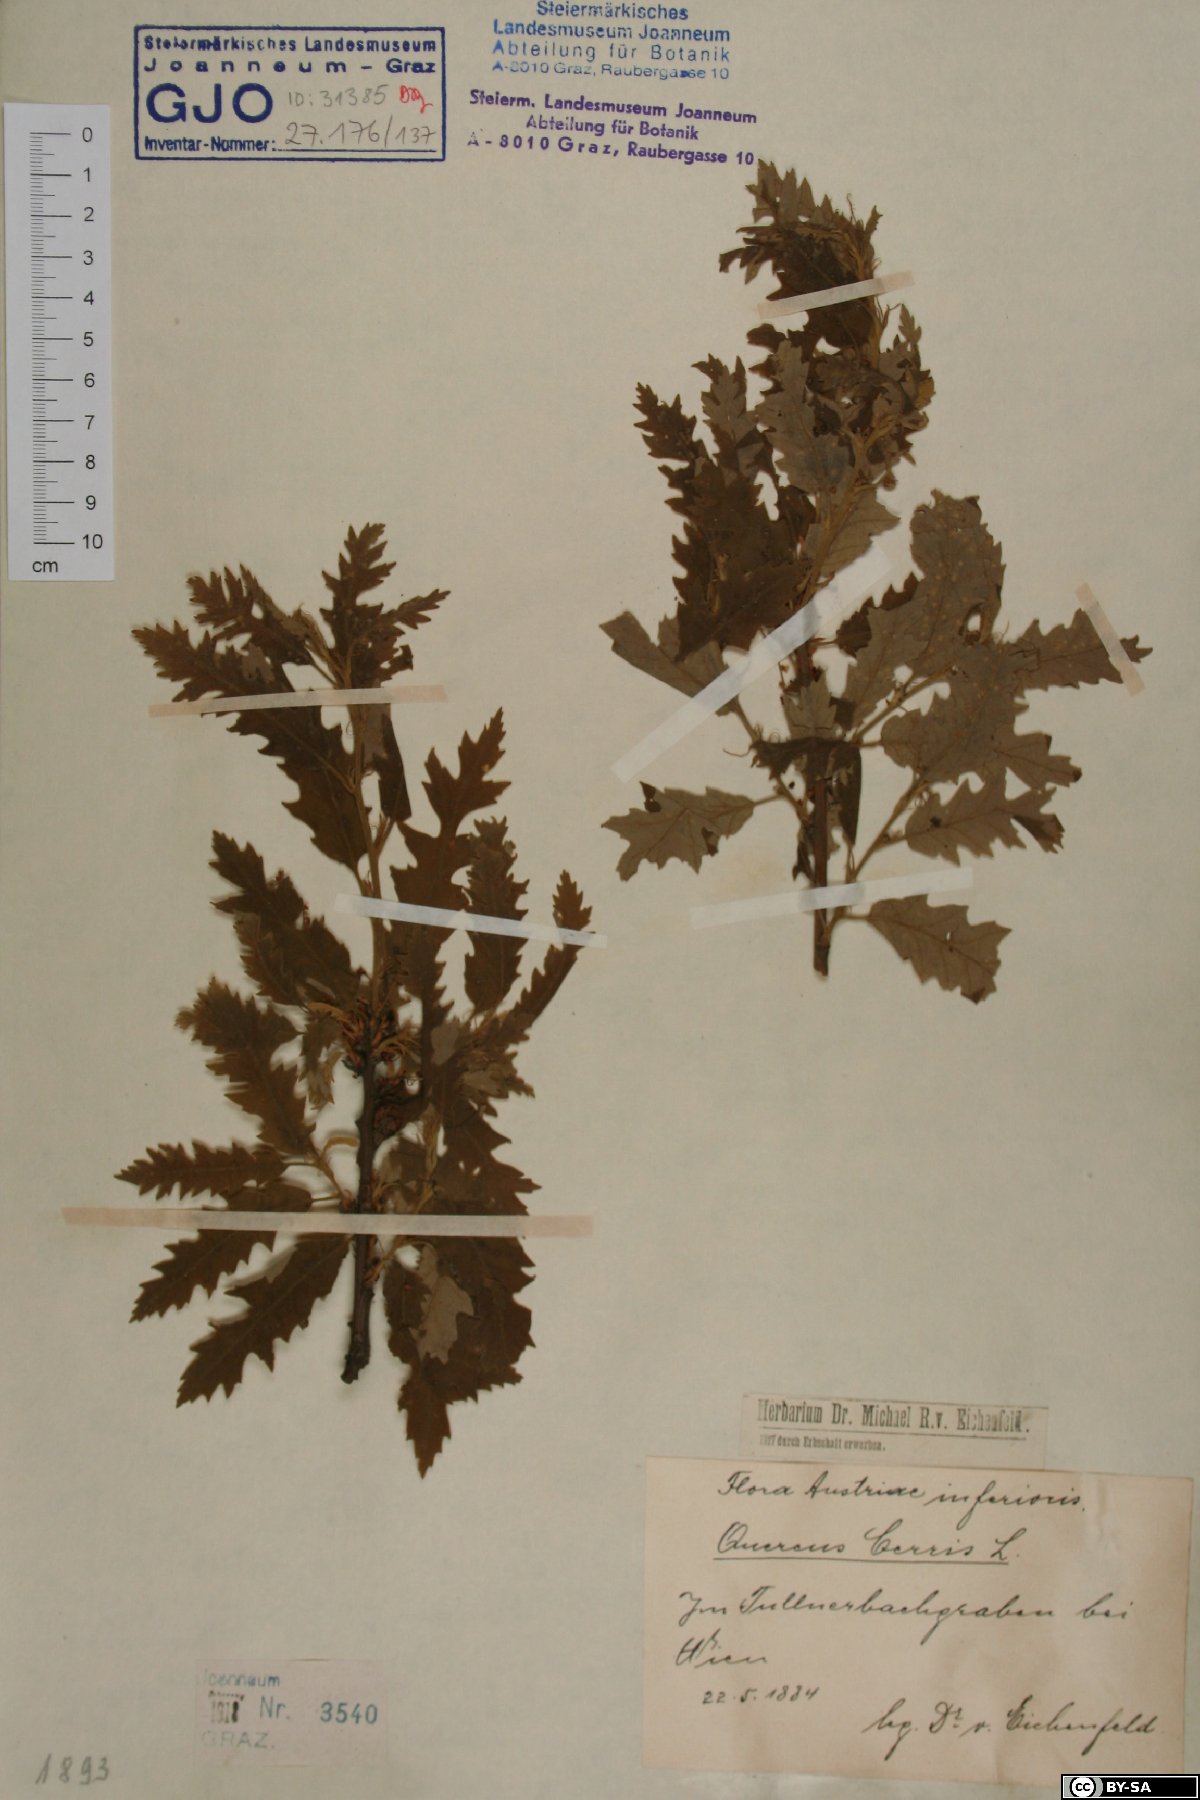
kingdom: Plantae
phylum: Tracheophyta
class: Magnoliopsida
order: Fagales
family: Fagaceae
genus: Quercus
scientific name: Quercus cerris
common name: Turkey oak
